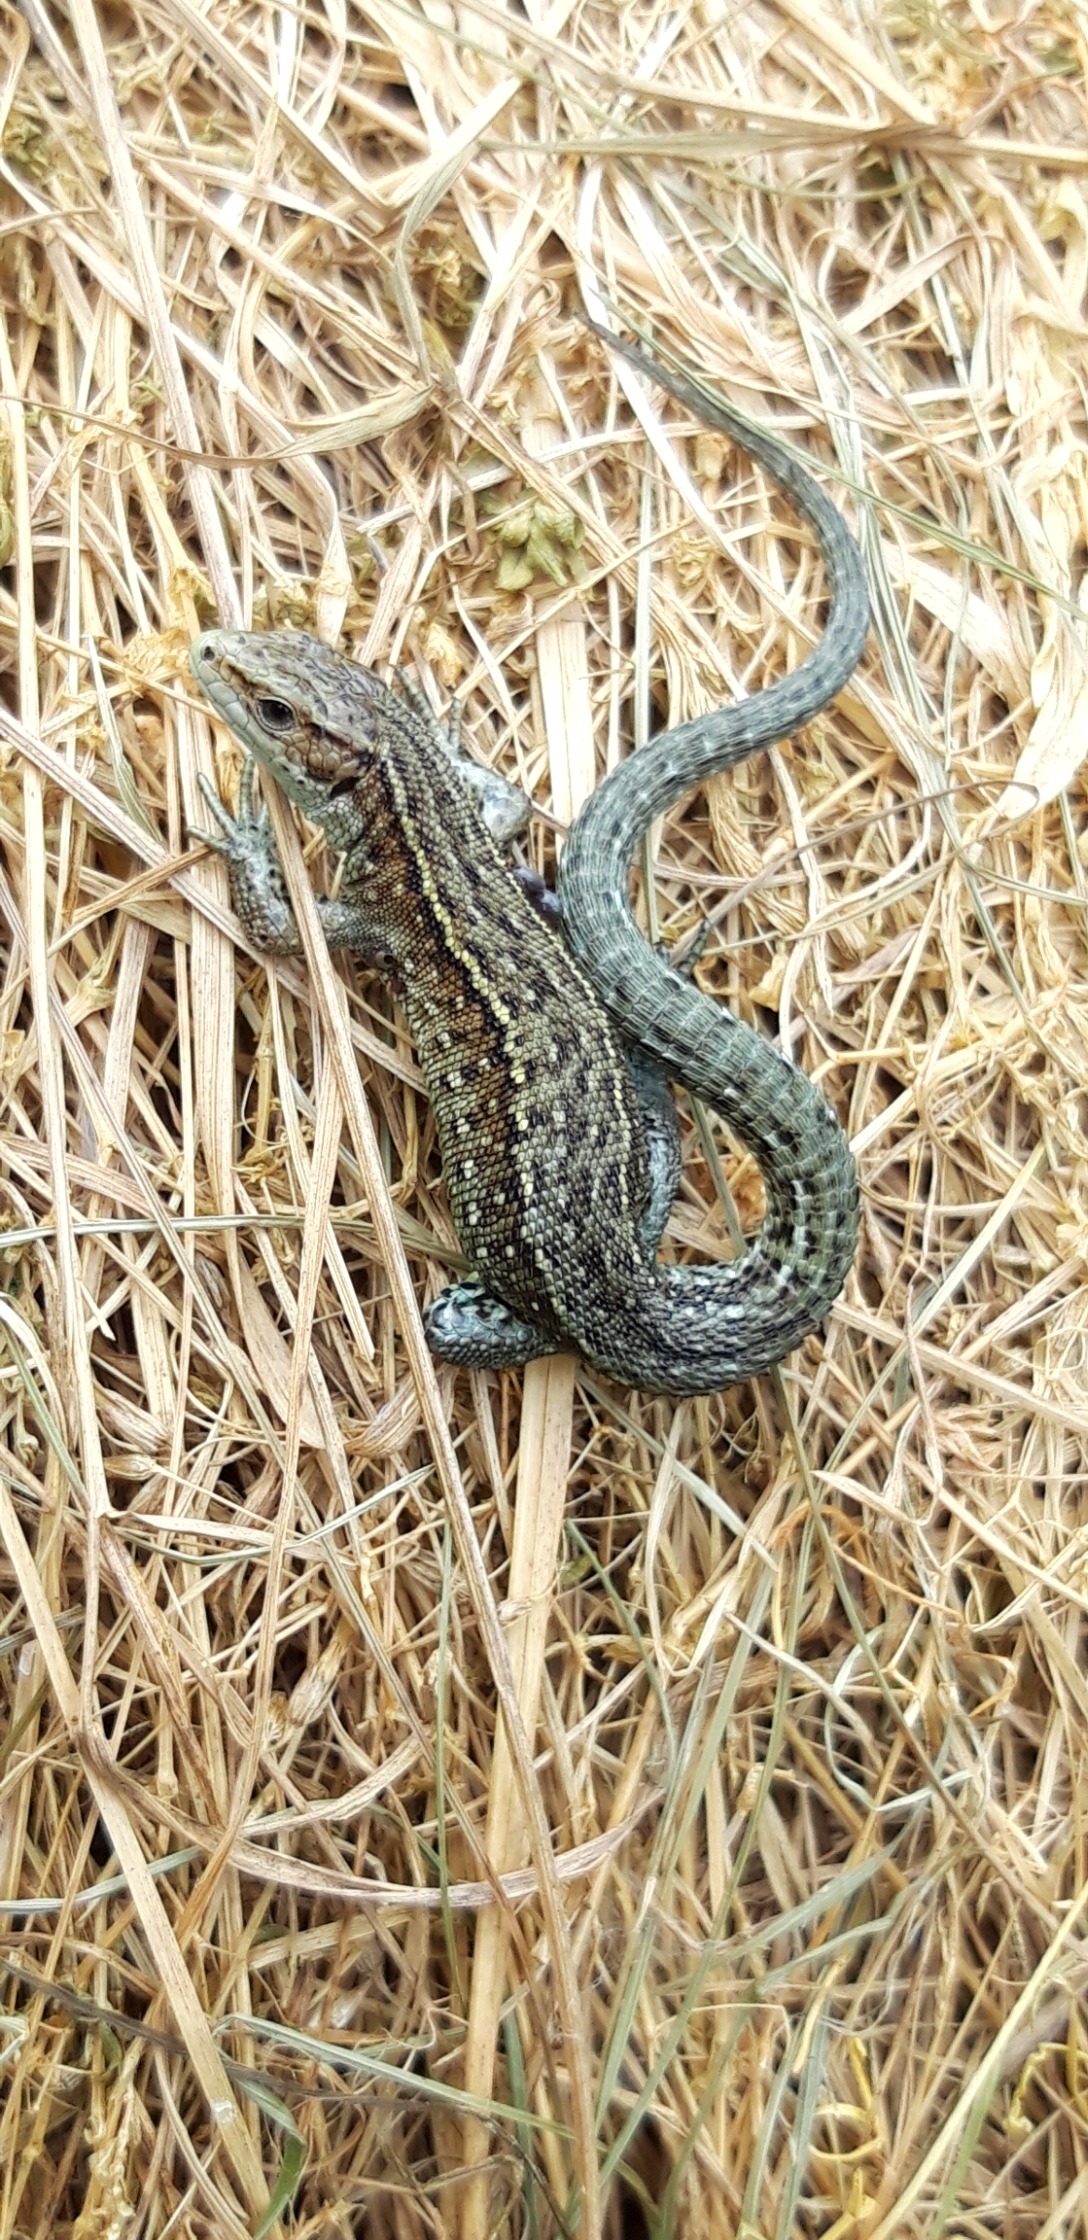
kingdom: Animalia
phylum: Chordata
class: Squamata
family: Lacertidae
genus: Zootoca
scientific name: Zootoca vivipara
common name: Skovfirben
